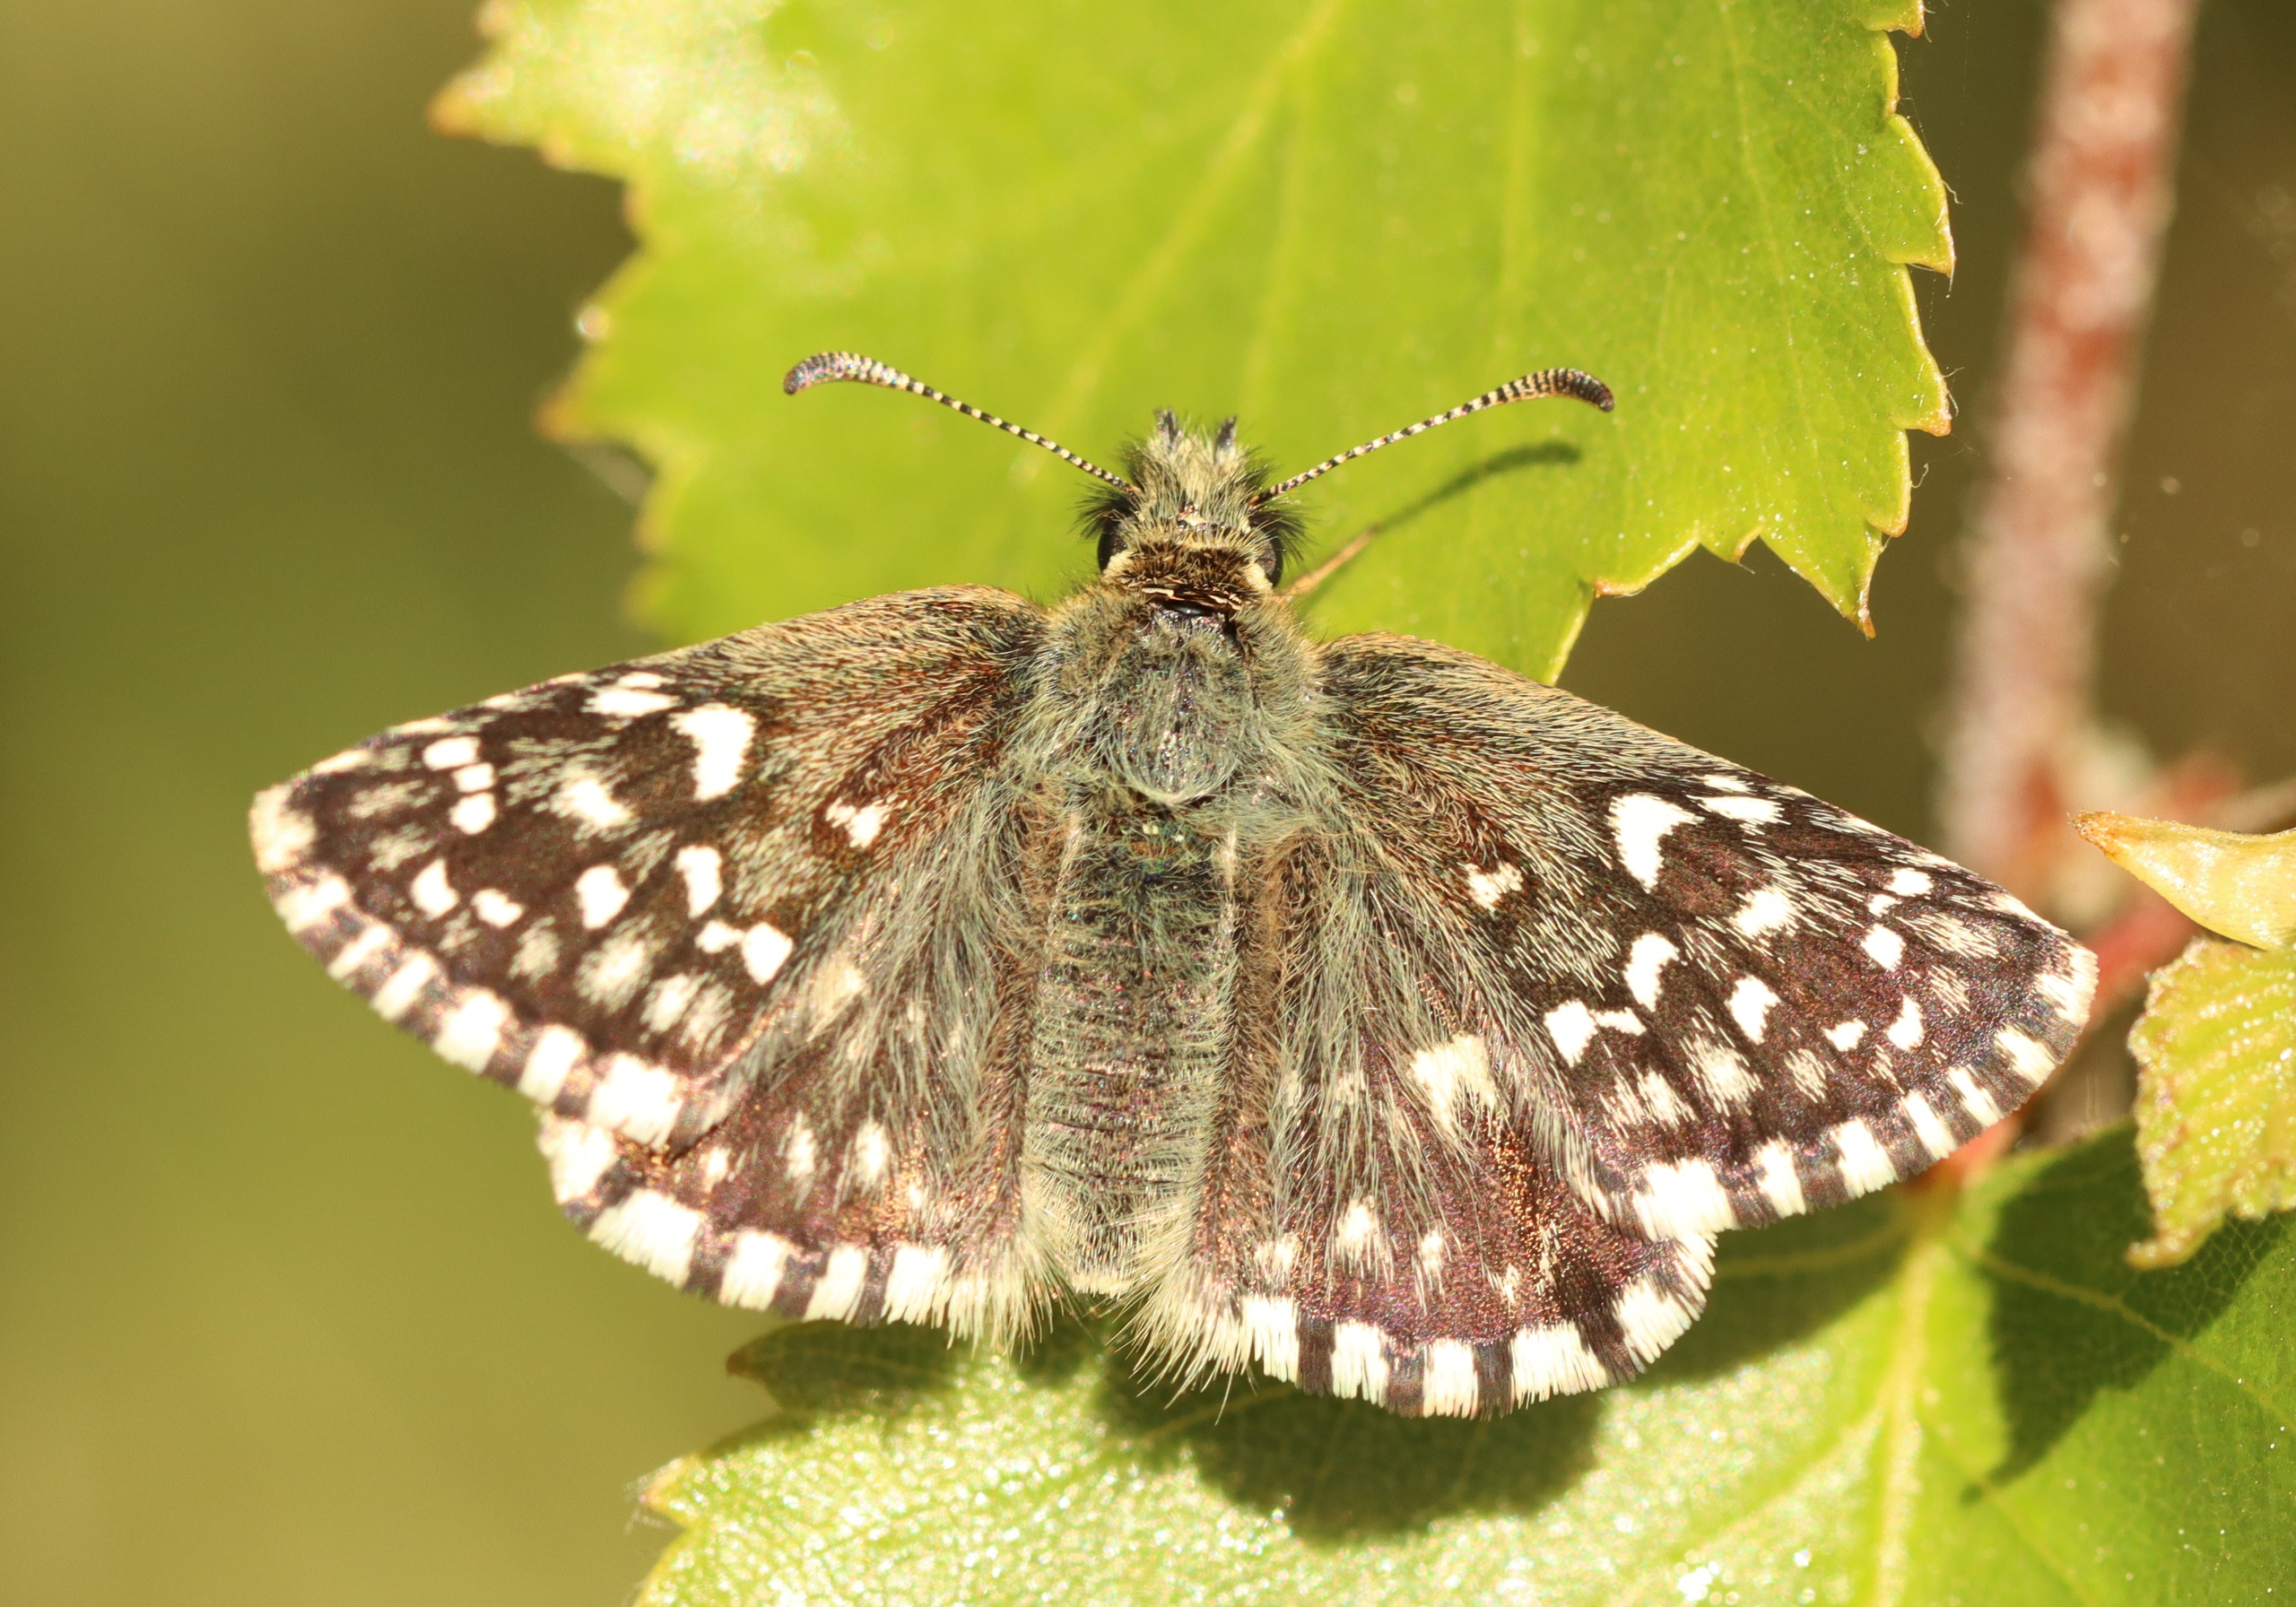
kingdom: Animalia
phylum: Arthropoda
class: Insecta
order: Lepidoptera
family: Hesperiidae
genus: Pyrgus
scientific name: Pyrgus malvae
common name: Spættet bredpande
